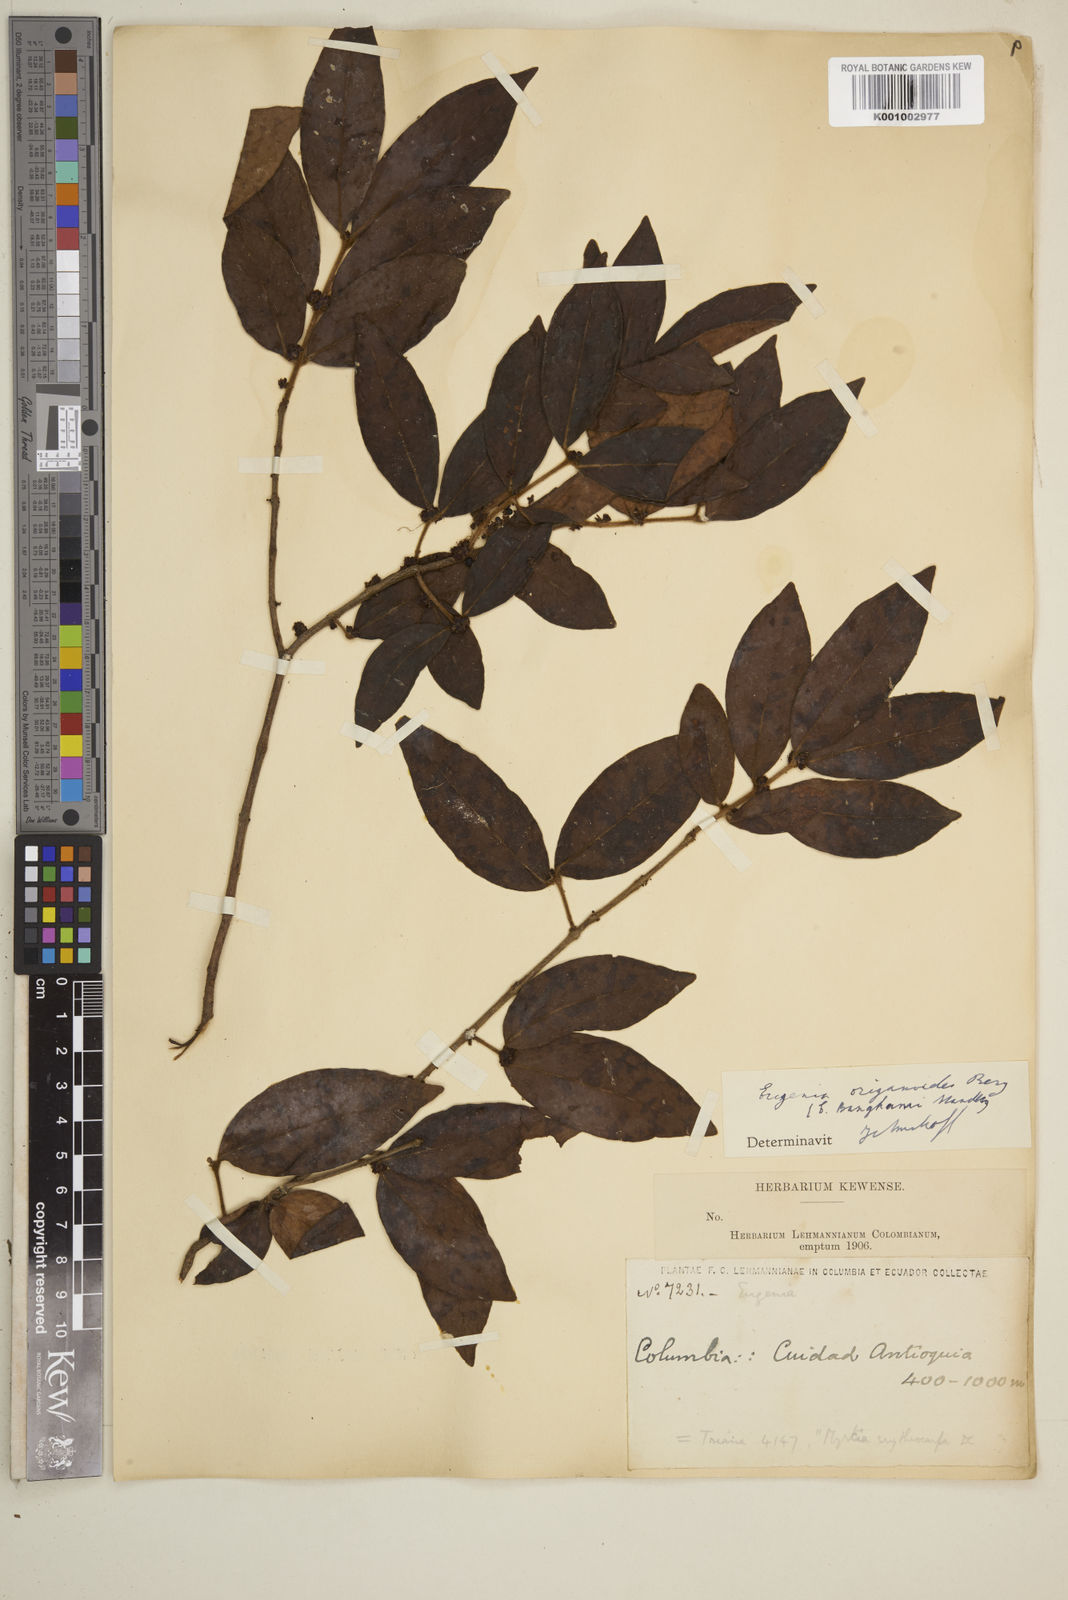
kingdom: Plantae
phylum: Tracheophyta
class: Magnoliopsida
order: Myrtales
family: Myrtaceae
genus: Eugenia
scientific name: Eugenia venezuelensis
